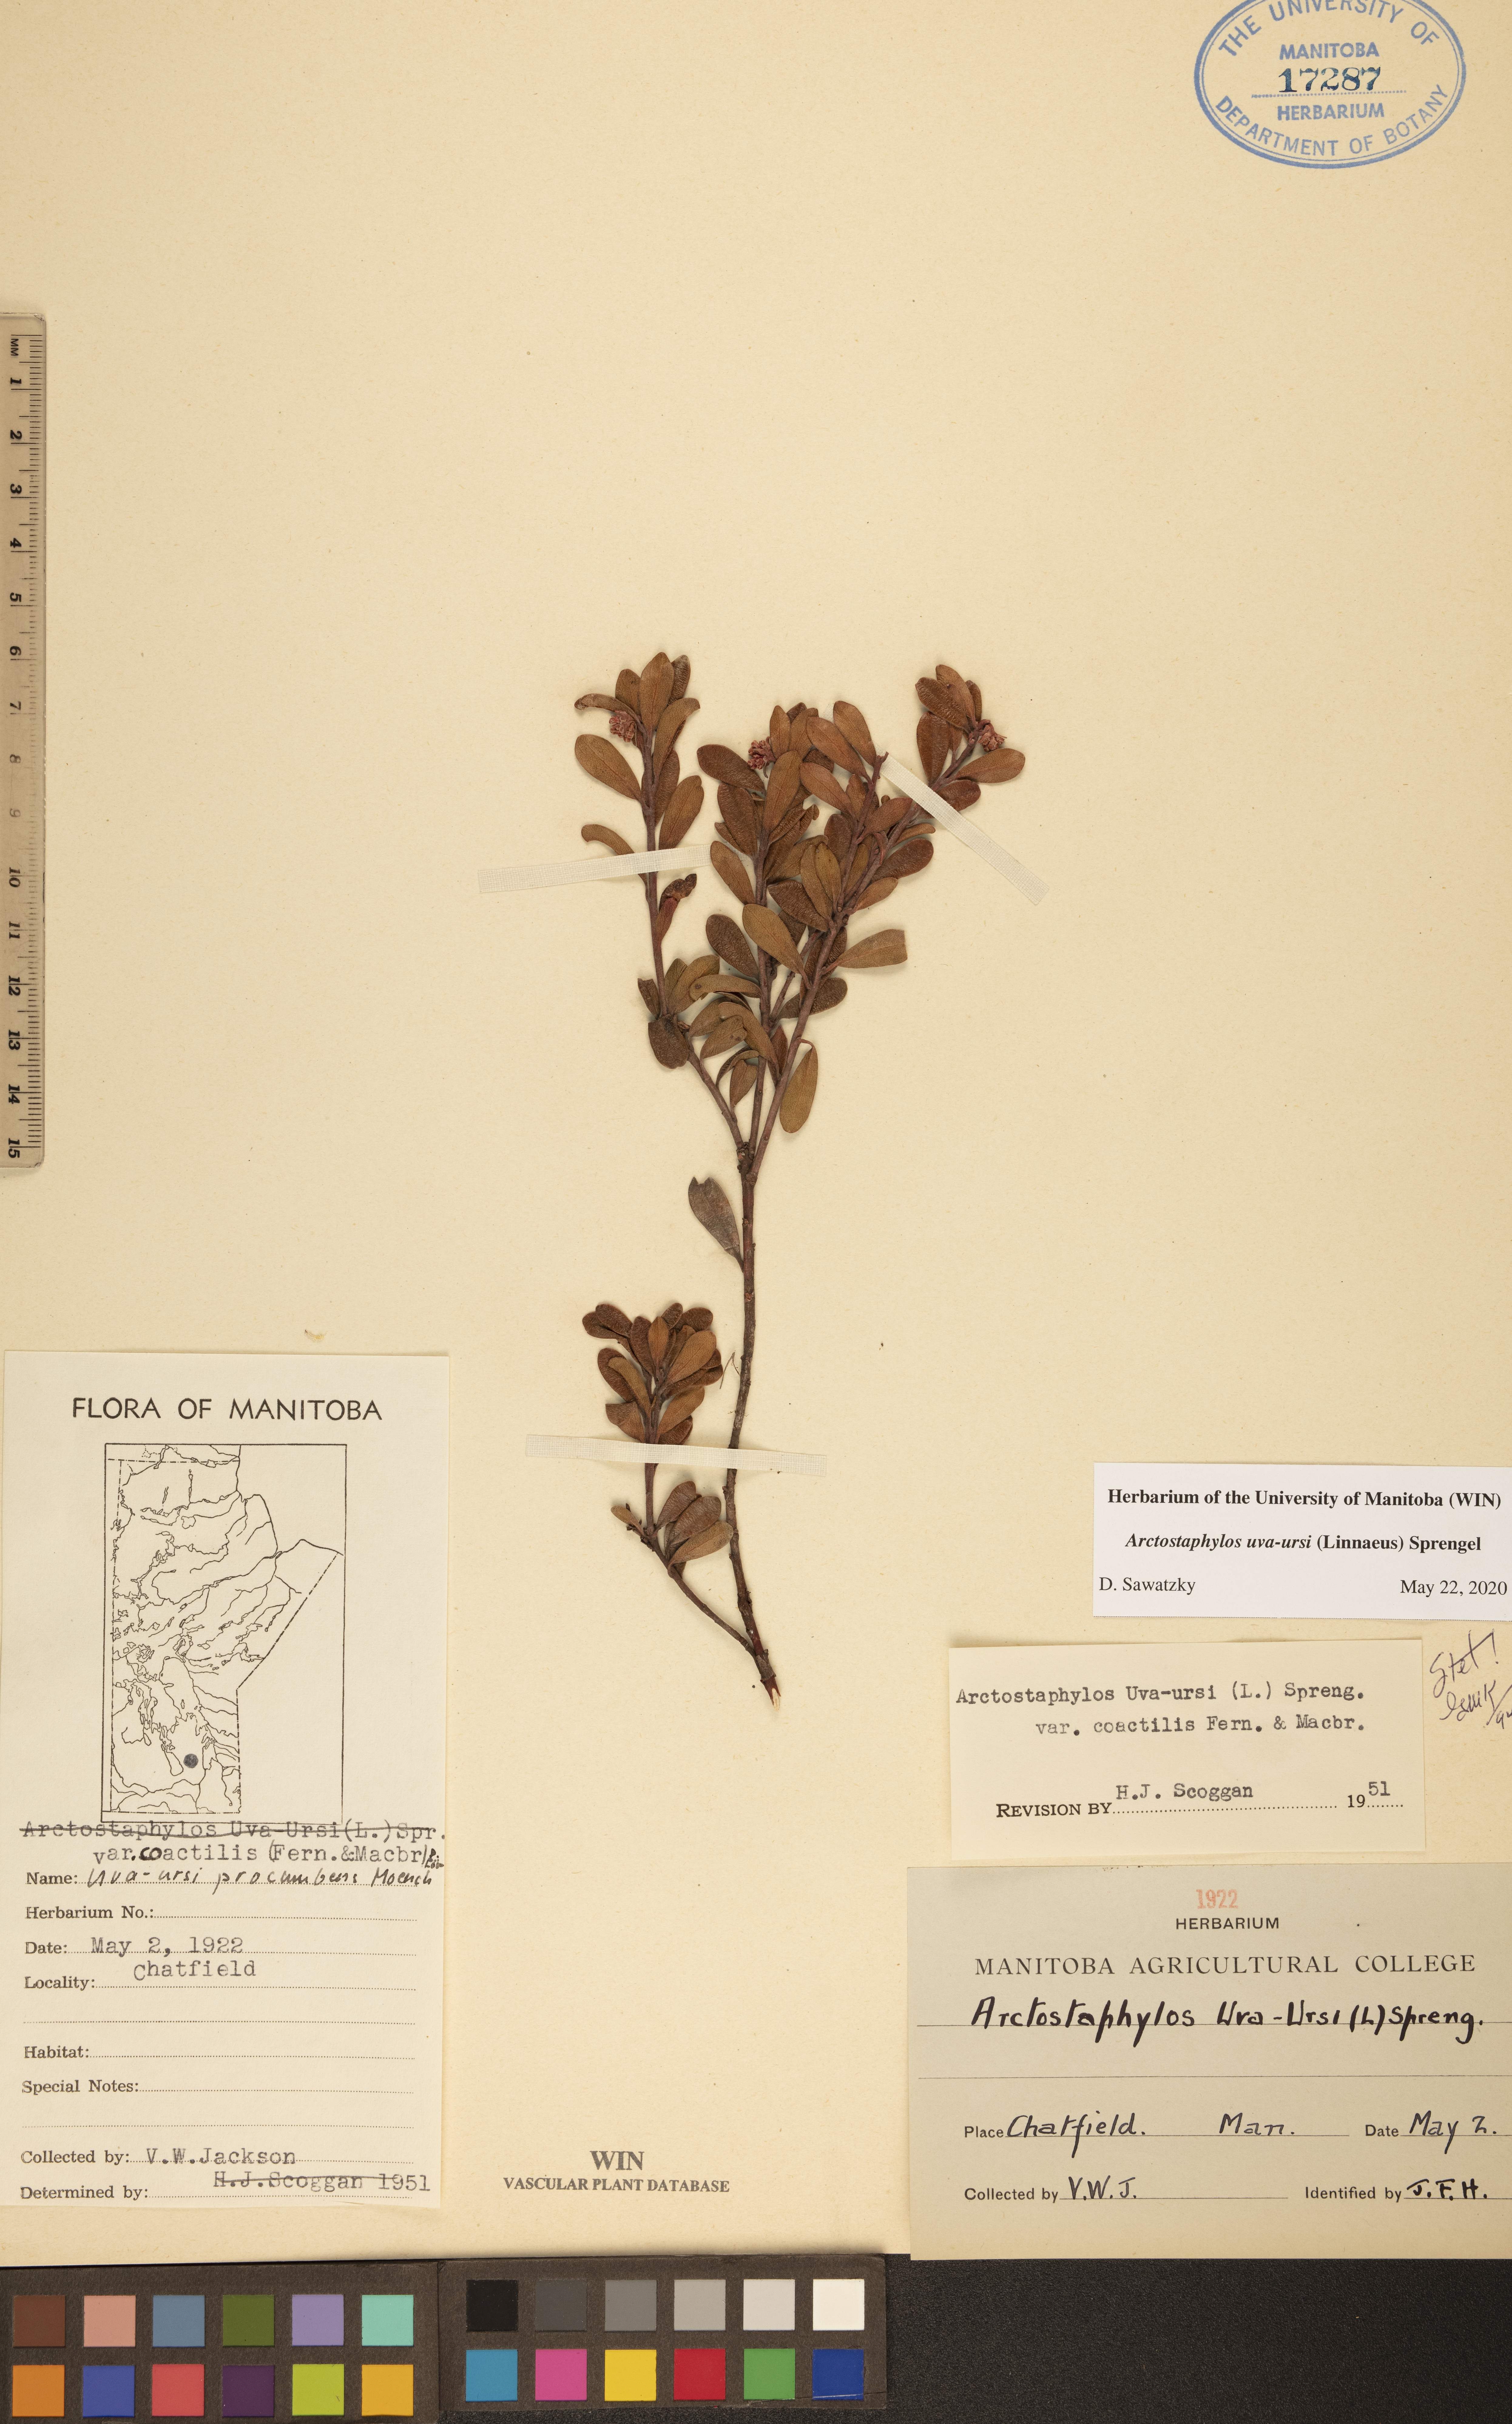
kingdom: Plantae
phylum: Tracheophyta
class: Magnoliopsida
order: Ericales
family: Ericaceae
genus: Arctostaphylos
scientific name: Arctostaphylos uva-ursi
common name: Bearberry
